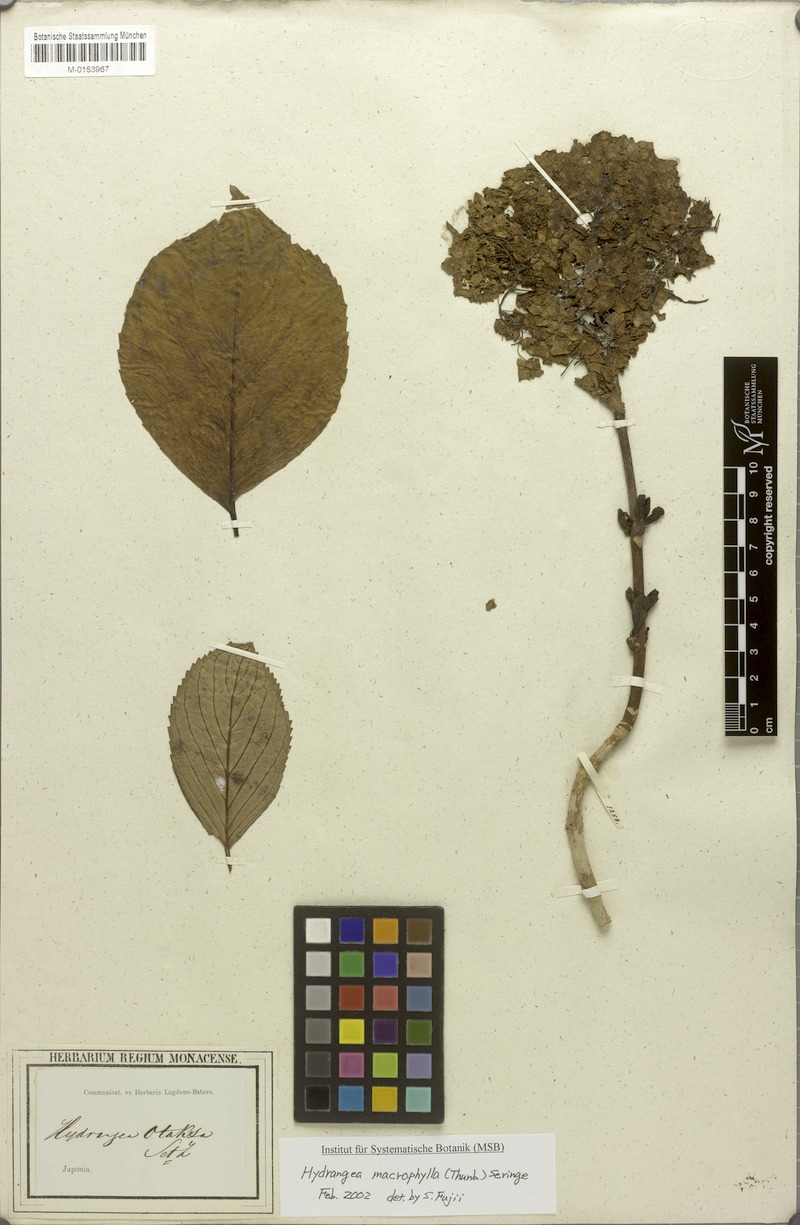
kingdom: Plantae
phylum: Tracheophyta
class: Magnoliopsida
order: Cornales
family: Hydrangeaceae
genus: Hydrangea
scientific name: Hydrangea macrophylla
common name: Hydrangea
